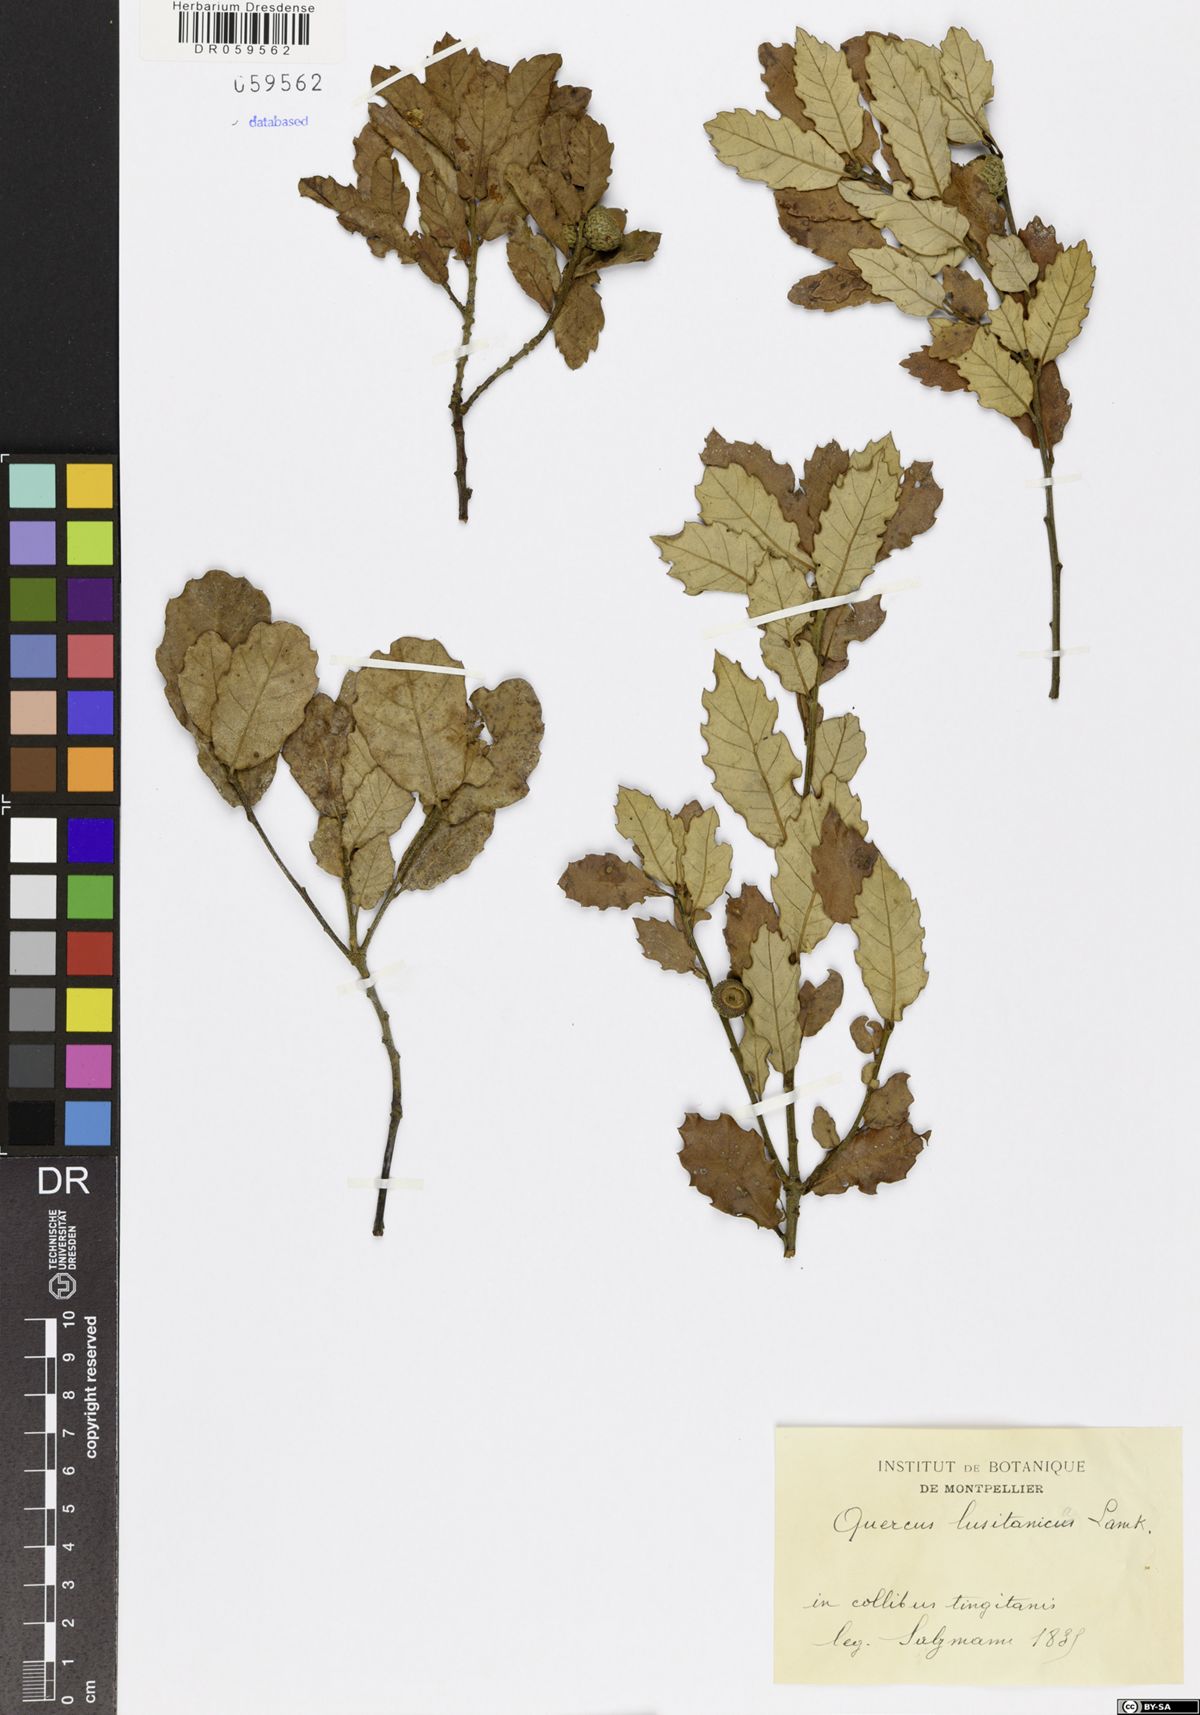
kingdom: Plantae
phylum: Tracheophyta
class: Magnoliopsida
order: Fagales
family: Fagaceae
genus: Quercus
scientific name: Quercus lusitanica
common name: Scrub gall oak
